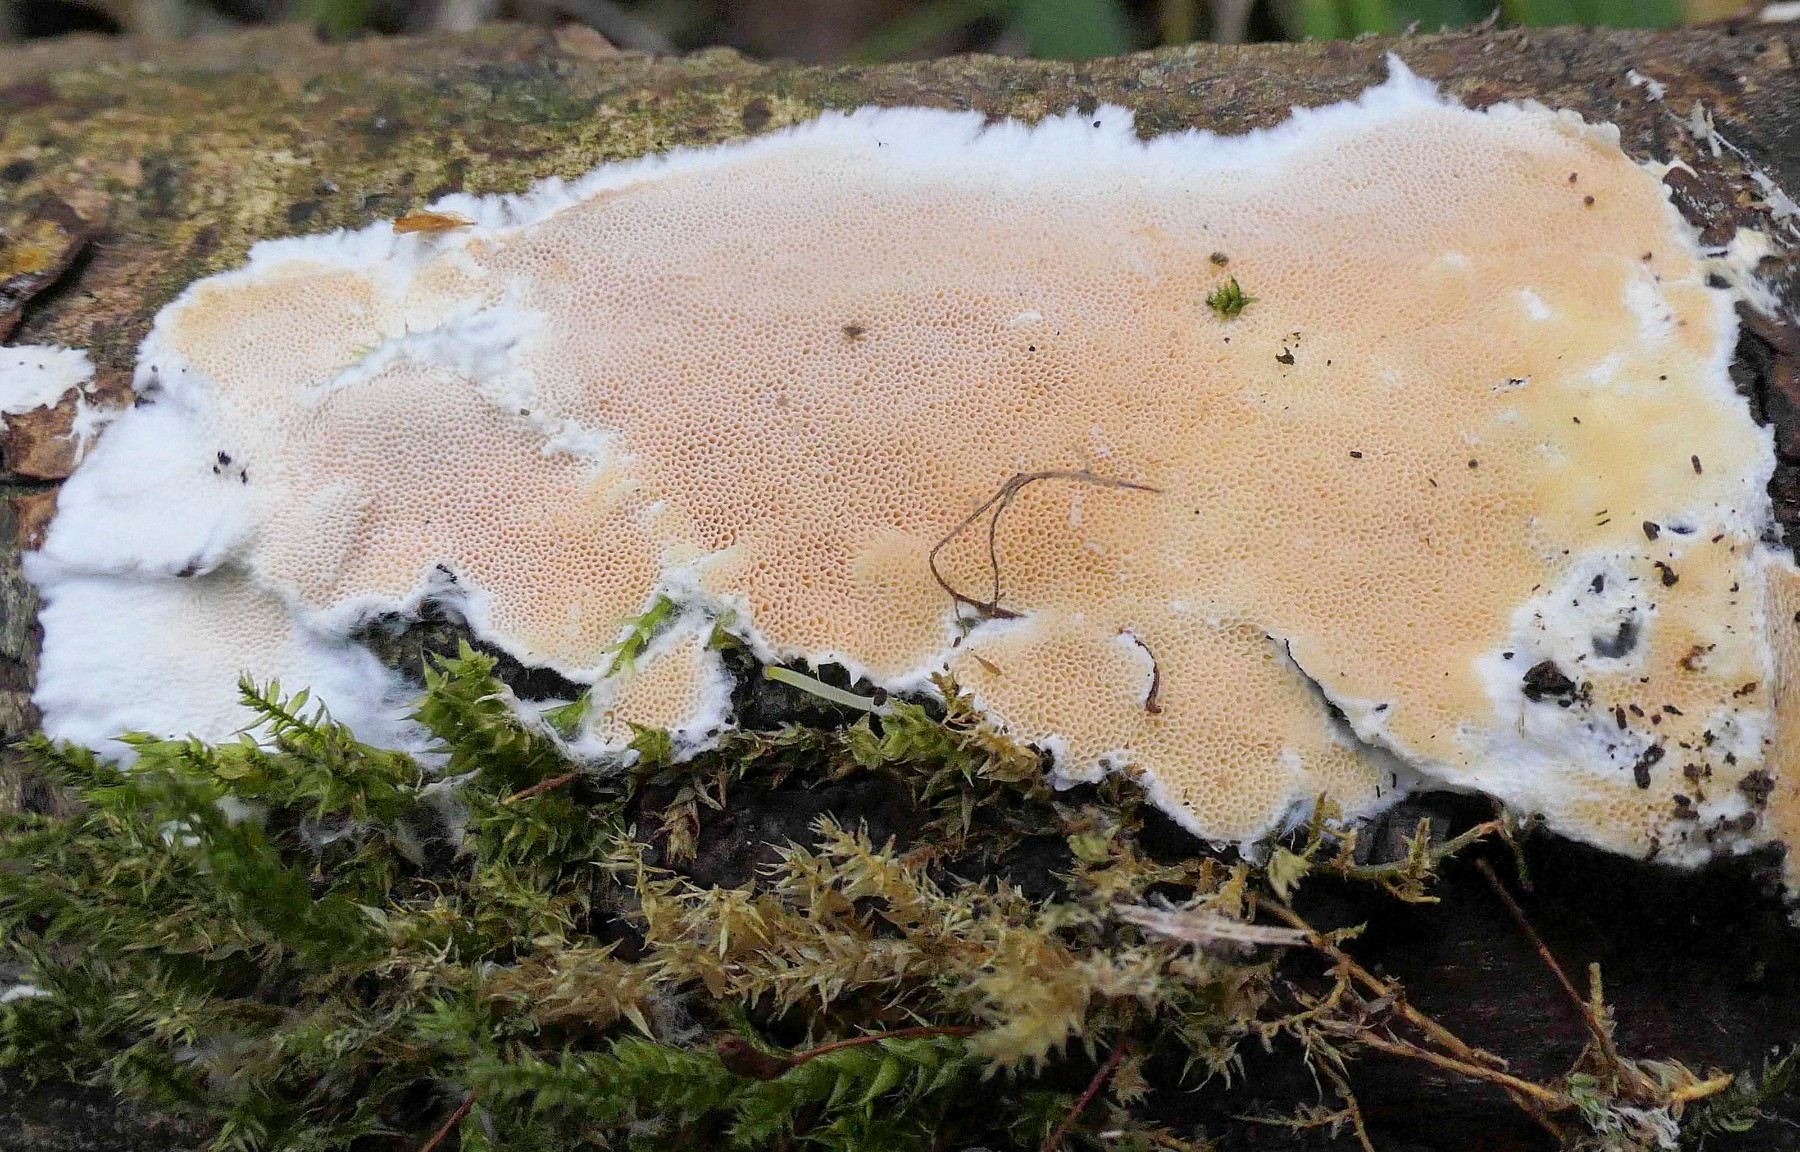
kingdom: Fungi
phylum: Basidiomycota
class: Agaricomycetes
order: Polyporales
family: Steccherinaceae
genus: Junghuhnia
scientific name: Junghuhnia nitida
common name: almindelig skønporesvamp
